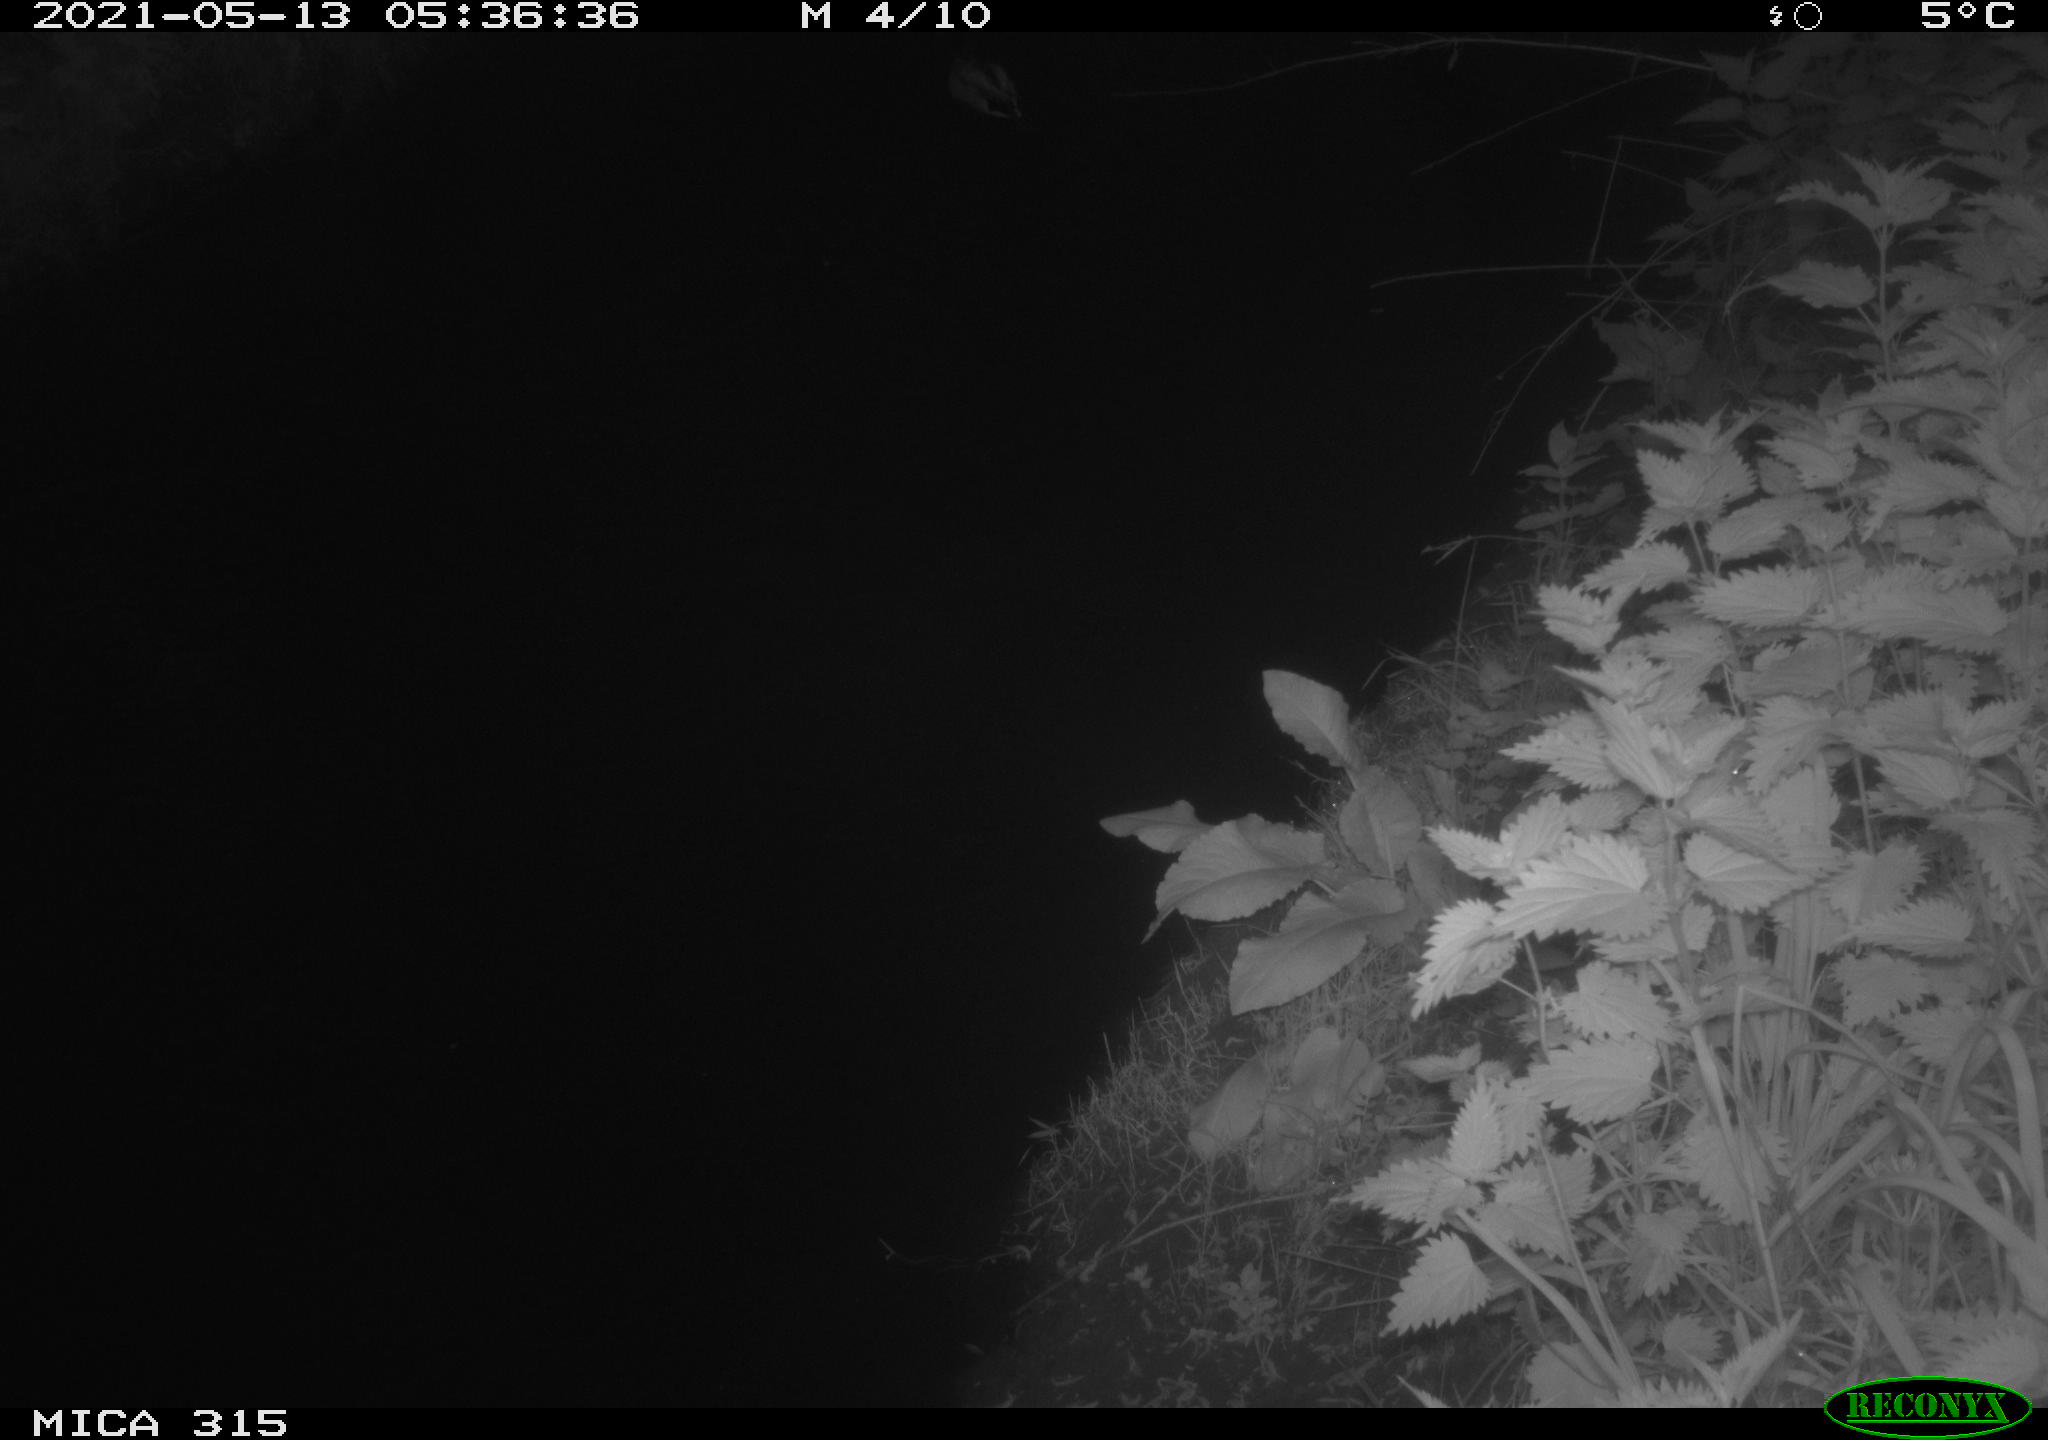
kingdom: Animalia
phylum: Chordata
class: Aves
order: Anseriformes
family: Anatidae
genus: Anas
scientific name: Anas
